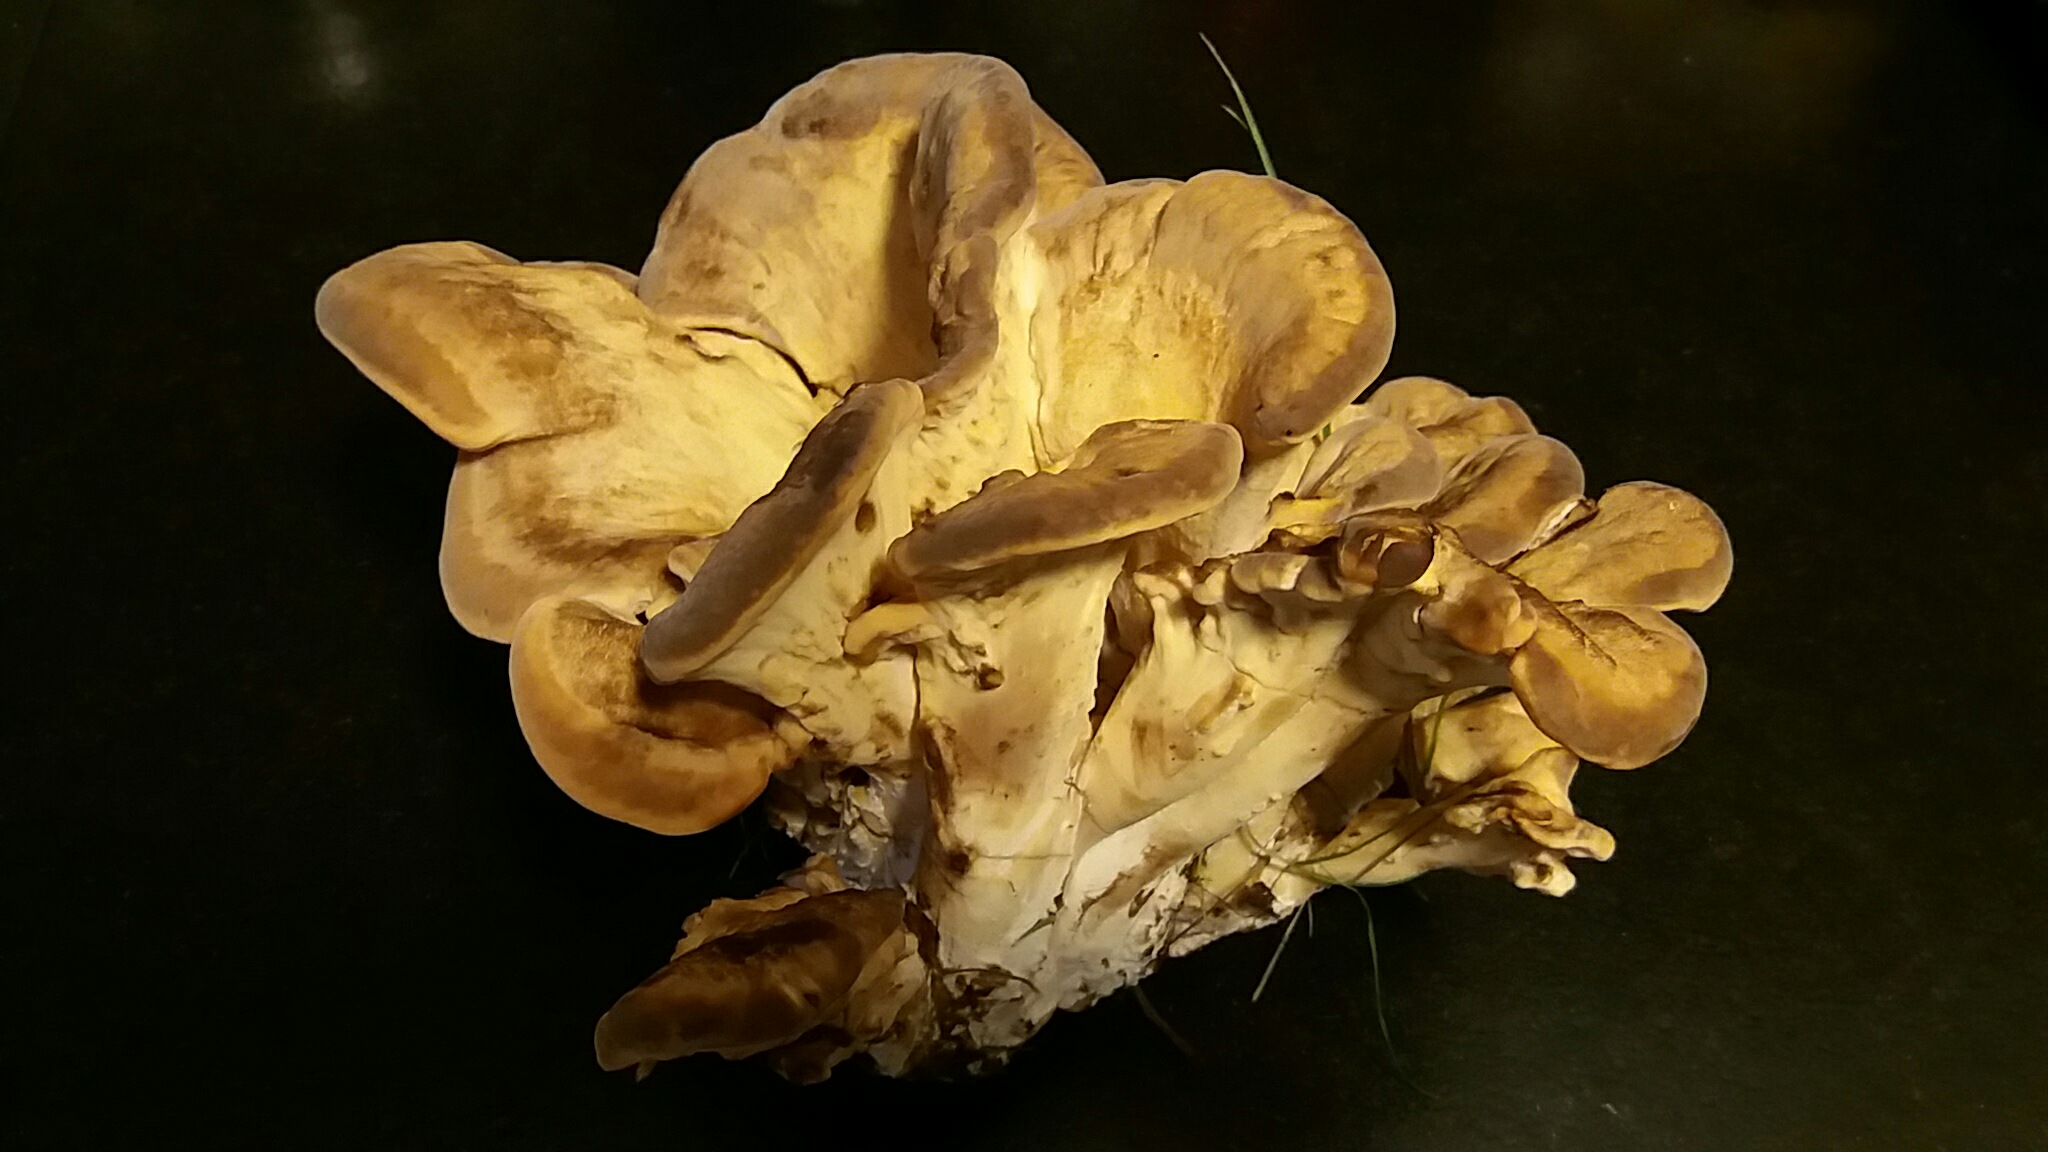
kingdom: Fungi
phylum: Basidiomycota
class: Agaricomycetes
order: Polyporales
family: Meripilaceae
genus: Meripilus
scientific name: Meripilus giganteus
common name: kæmpeporesvamp
